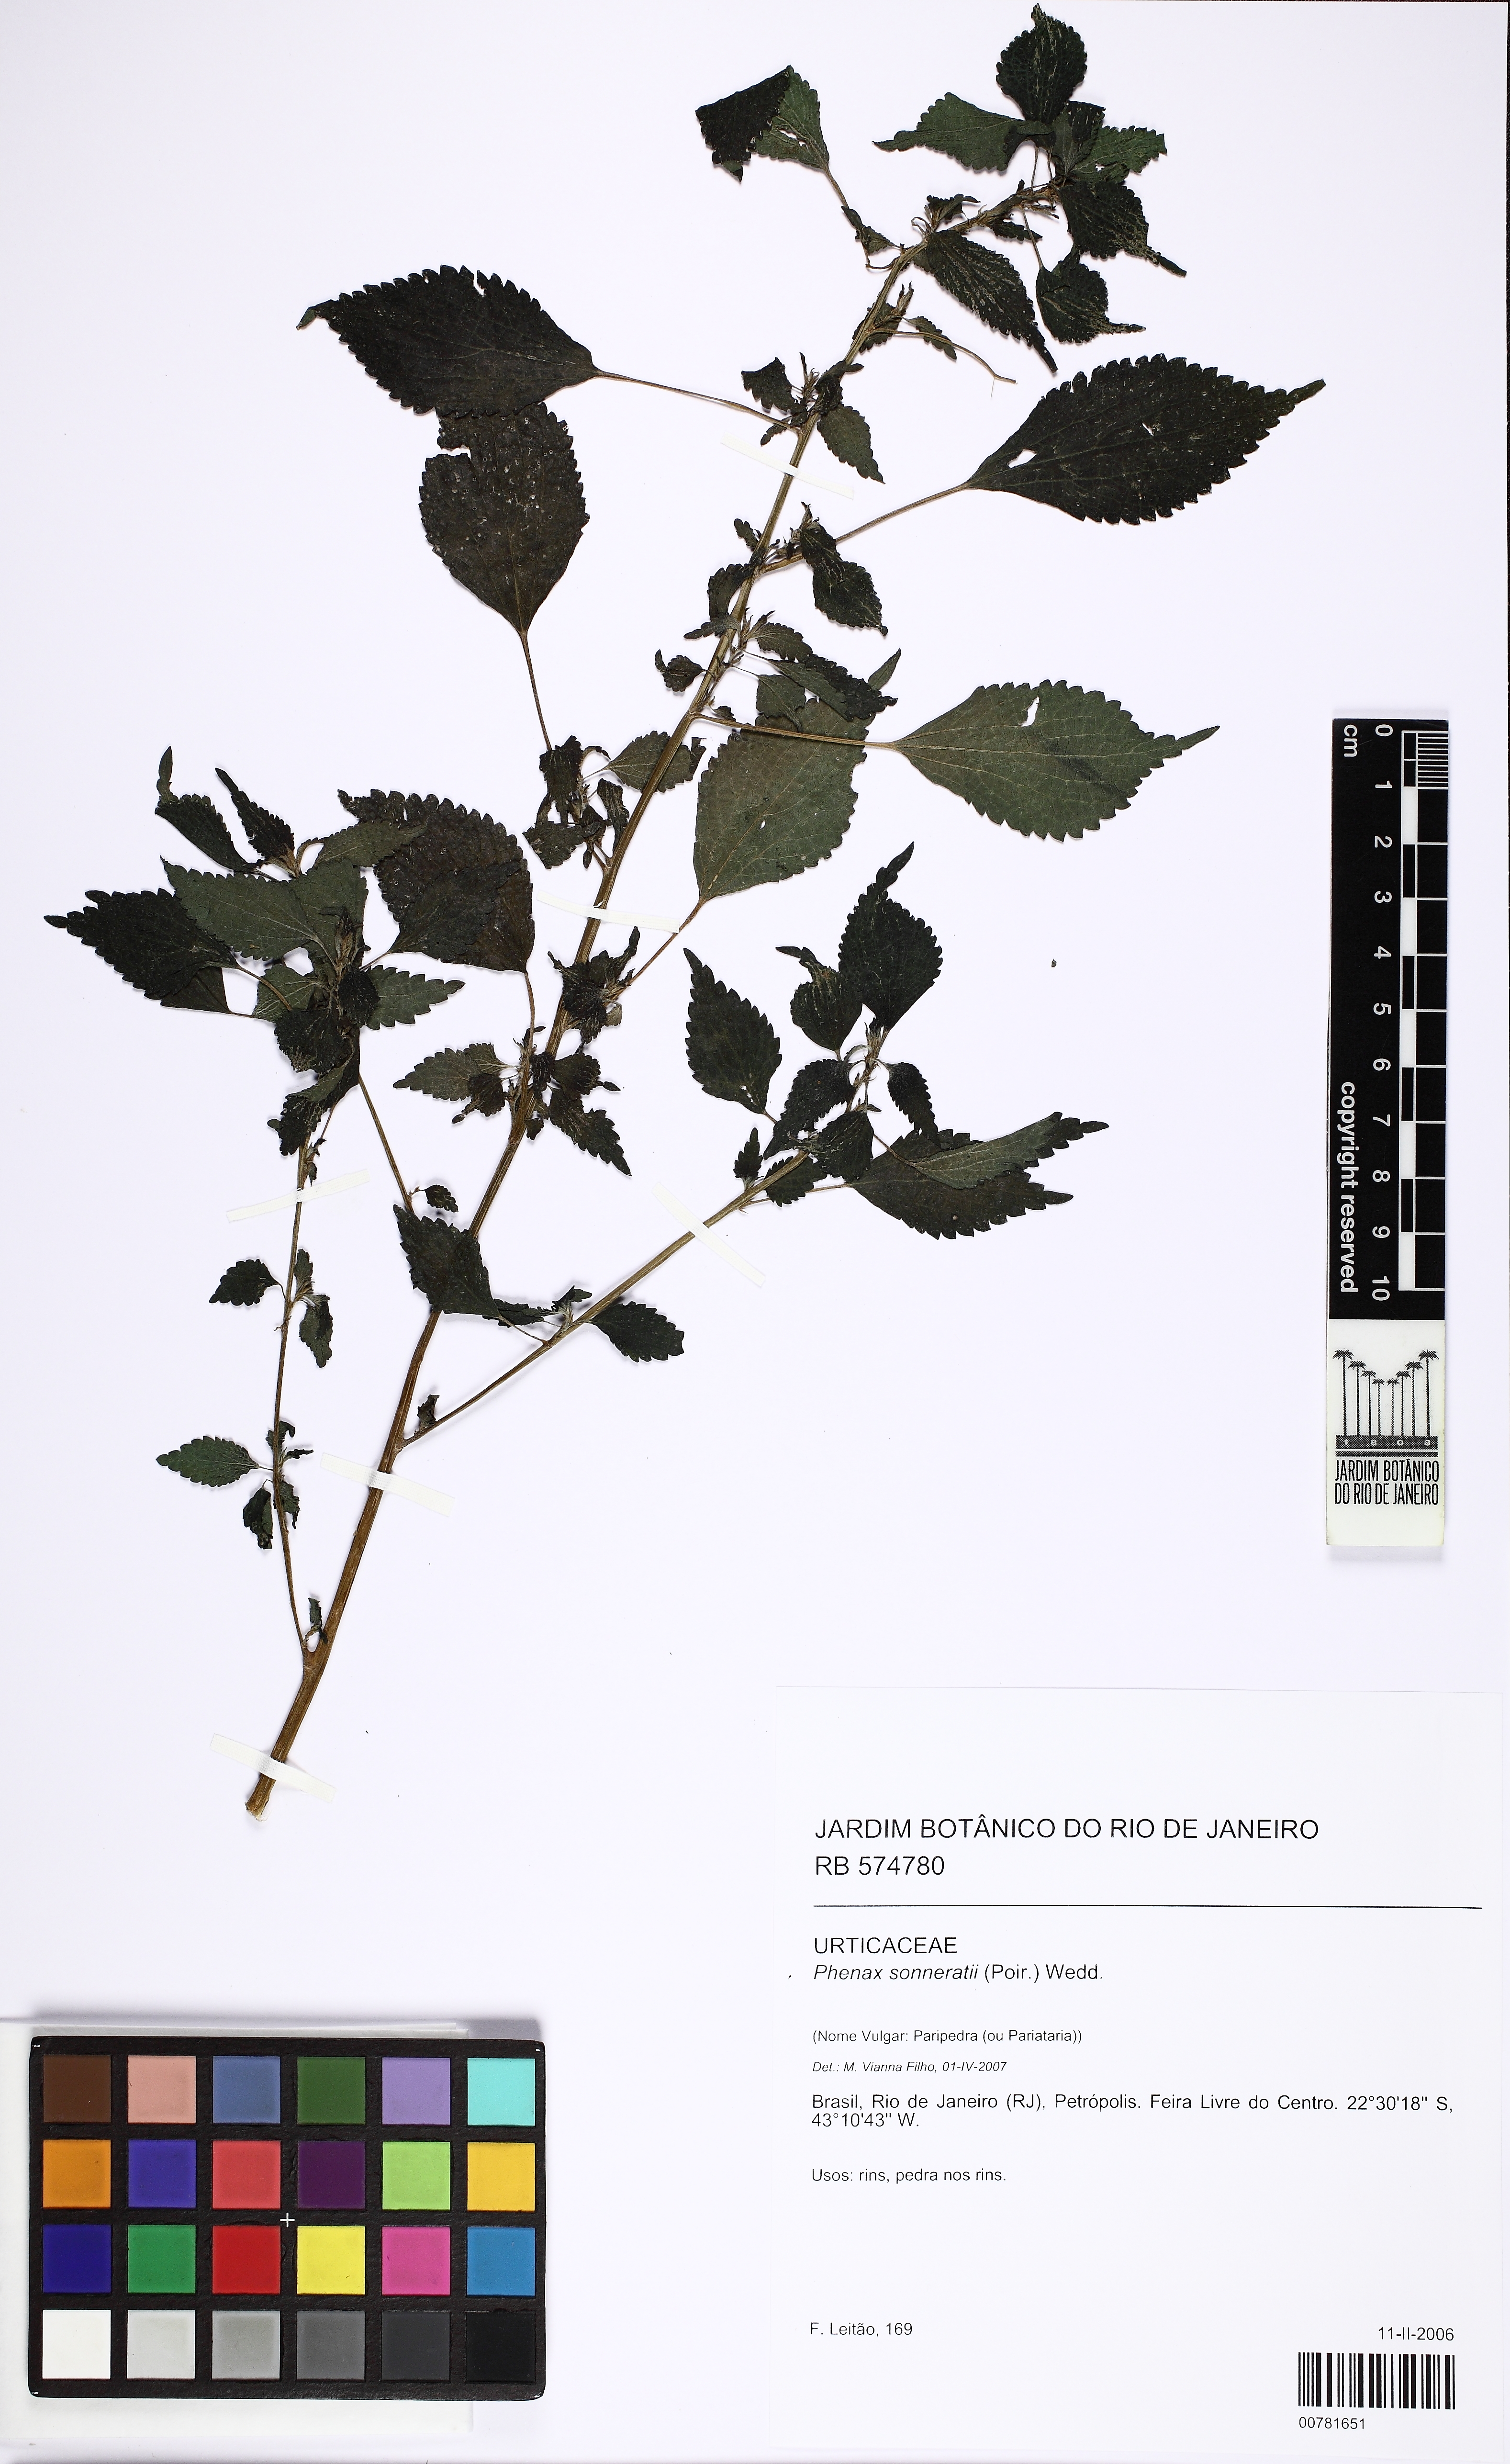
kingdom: Plantae
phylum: Tracheophyta
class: Magnoliopsida
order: Rosales
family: Urticaceae
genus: Phenax
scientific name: Phenax sonneratii
